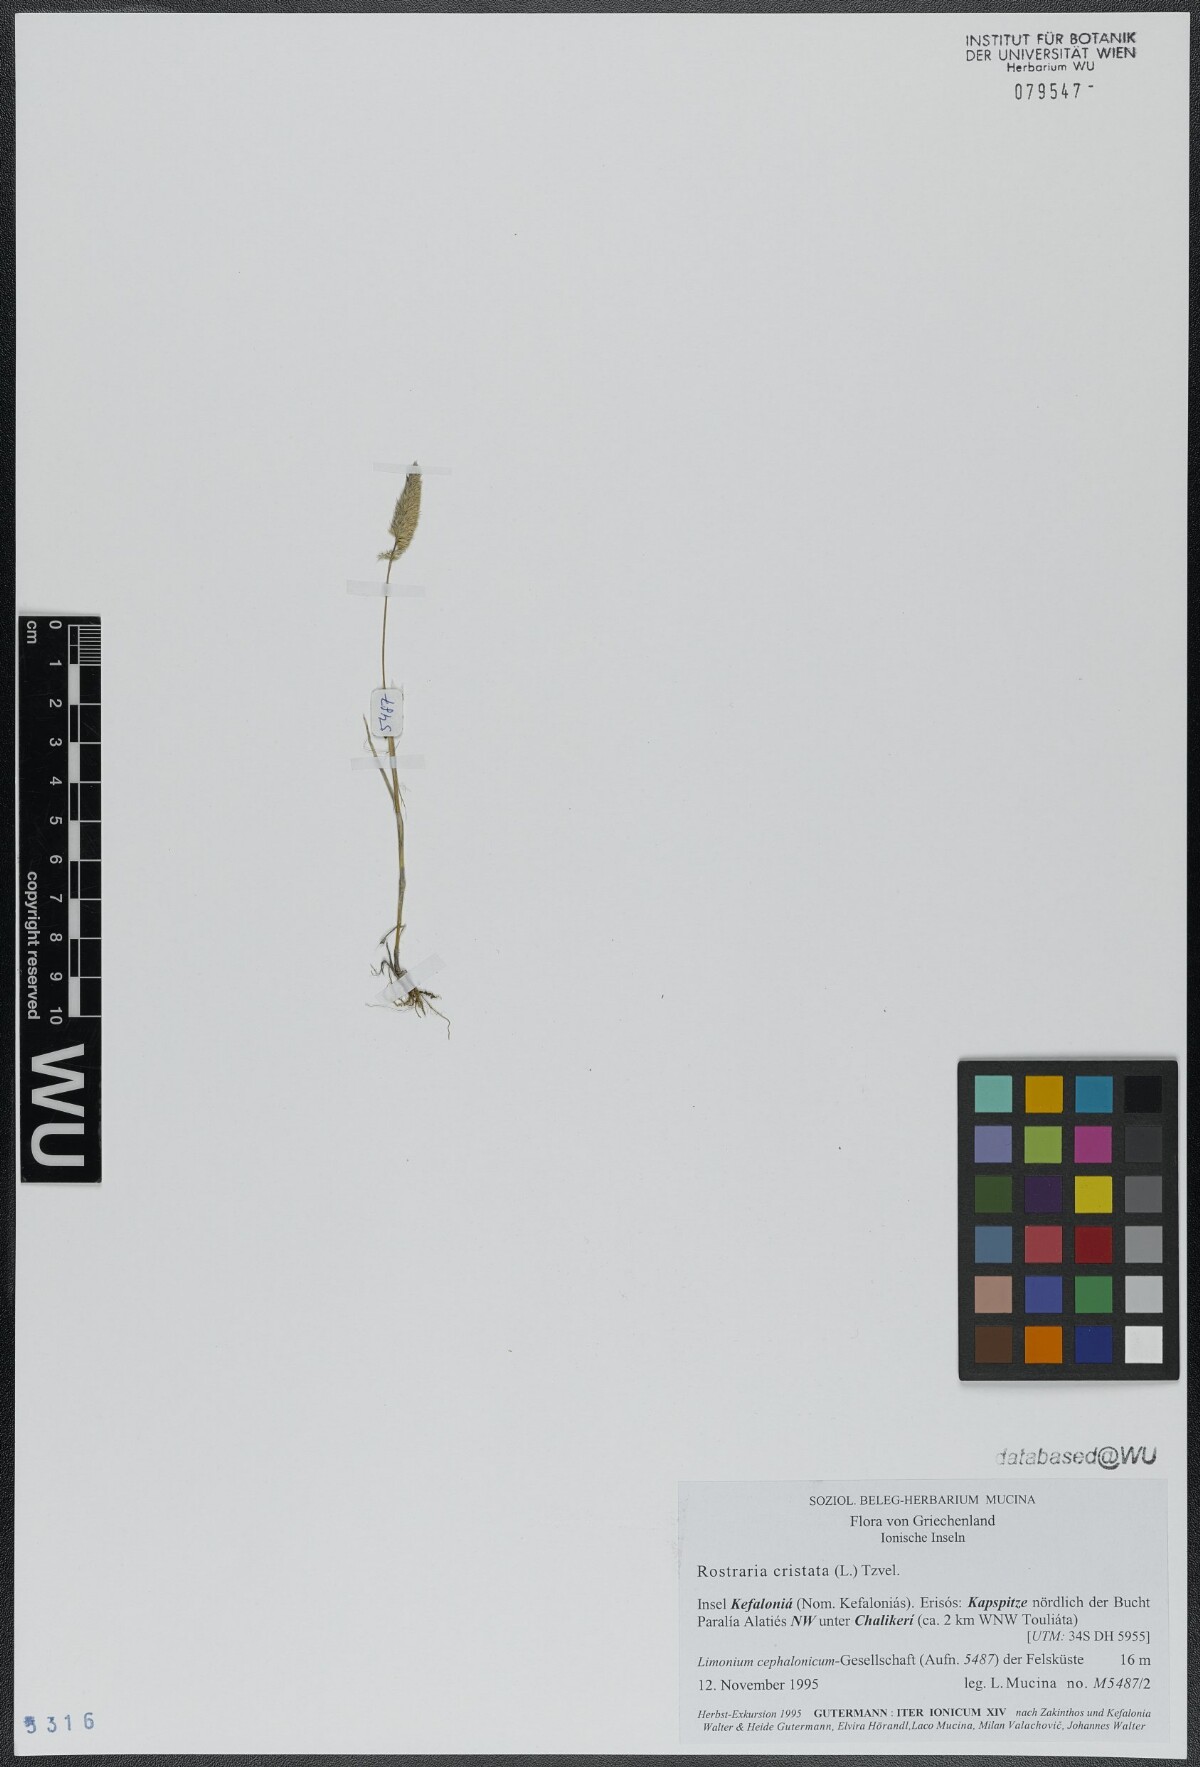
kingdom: Plantae
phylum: Tracheophyta
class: Liliopsida
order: Poales
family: Poaceae
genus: Rostraria
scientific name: Rostraria cristata
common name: Mediterranean hair-grass
